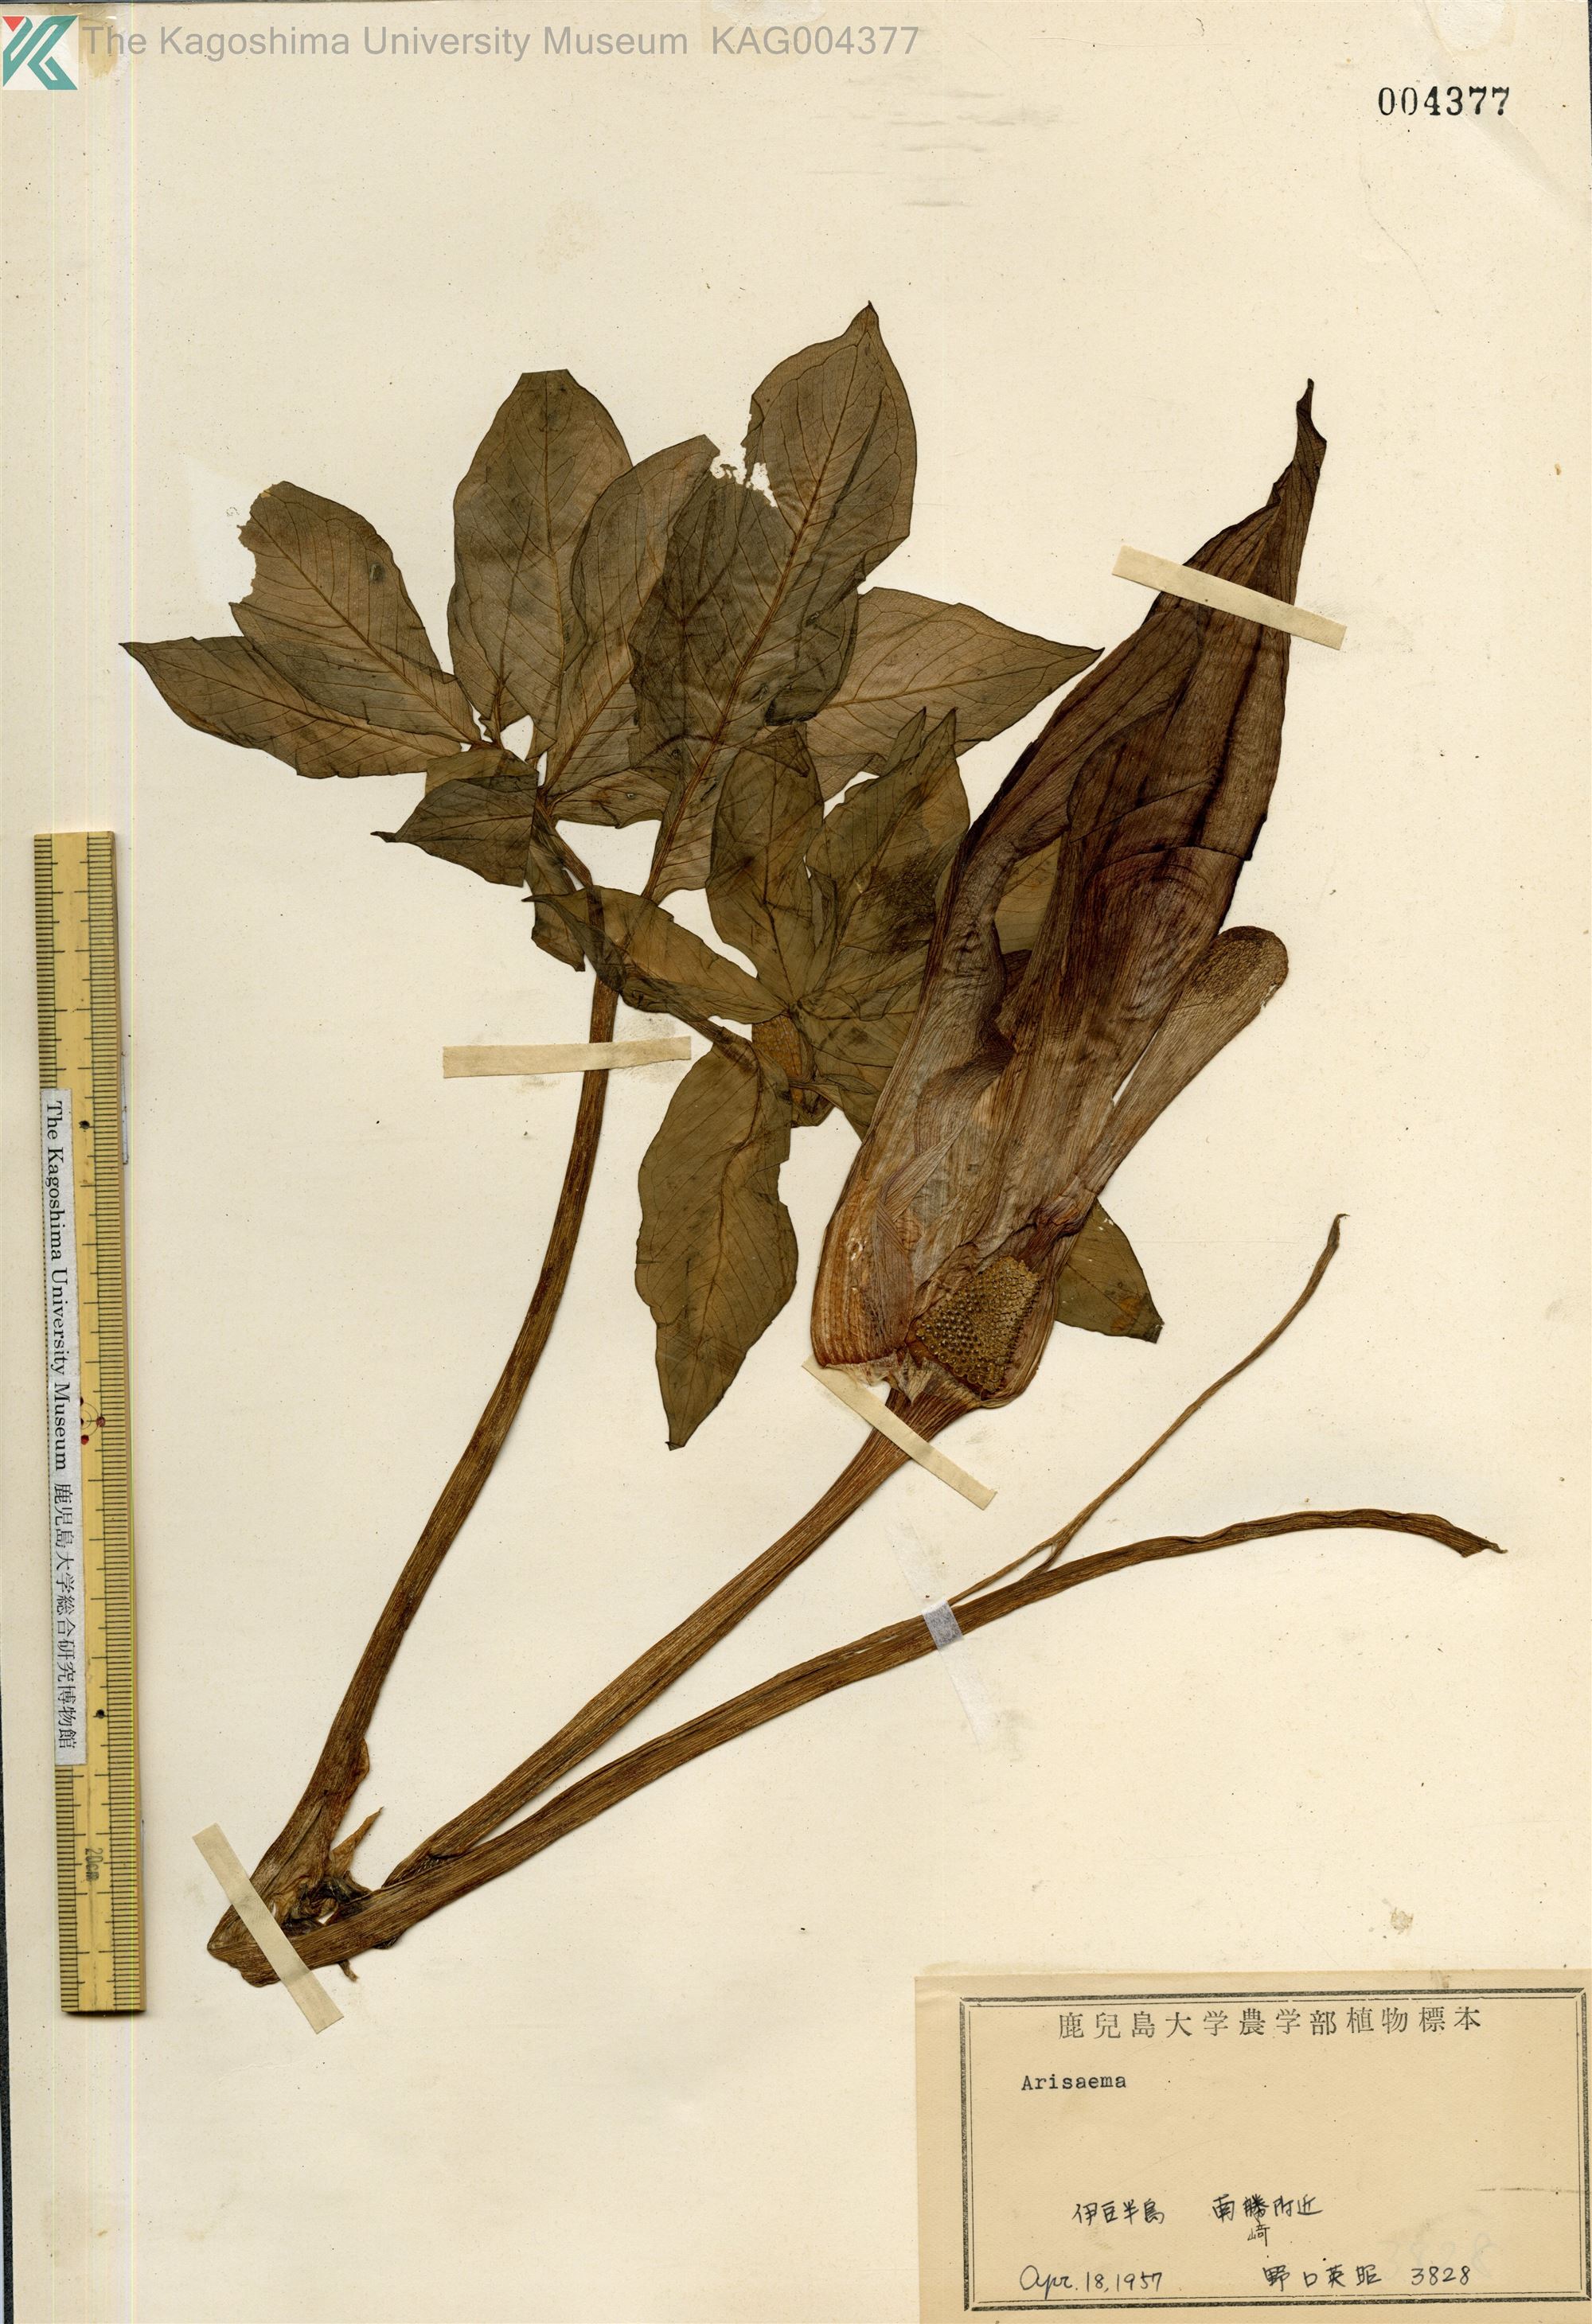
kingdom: Plantae
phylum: Tracheophyta
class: Liliopsida
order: Alismatales
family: Araceae
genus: Arisaema
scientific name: Arisaema serratum
